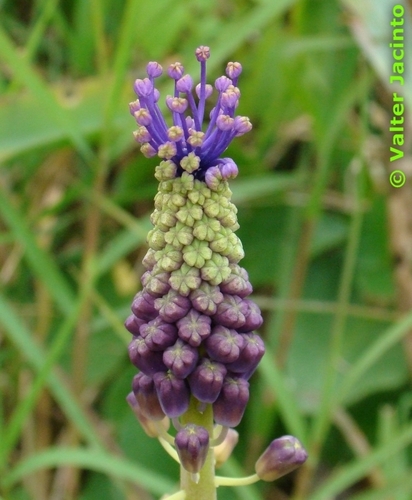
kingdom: Plantae
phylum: Tracheophyta
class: Liliopsida
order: Asparagales
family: Asparagaceae
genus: Muscari
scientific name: Muscari comosum
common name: Tassel hyacinth
